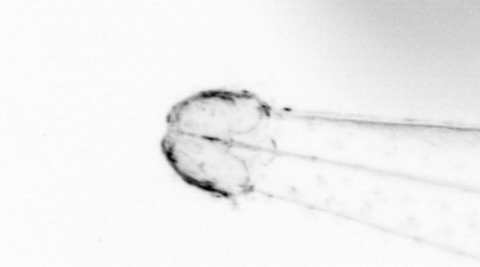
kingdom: Animalia
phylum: Chaetognatha
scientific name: Chaetognatha
